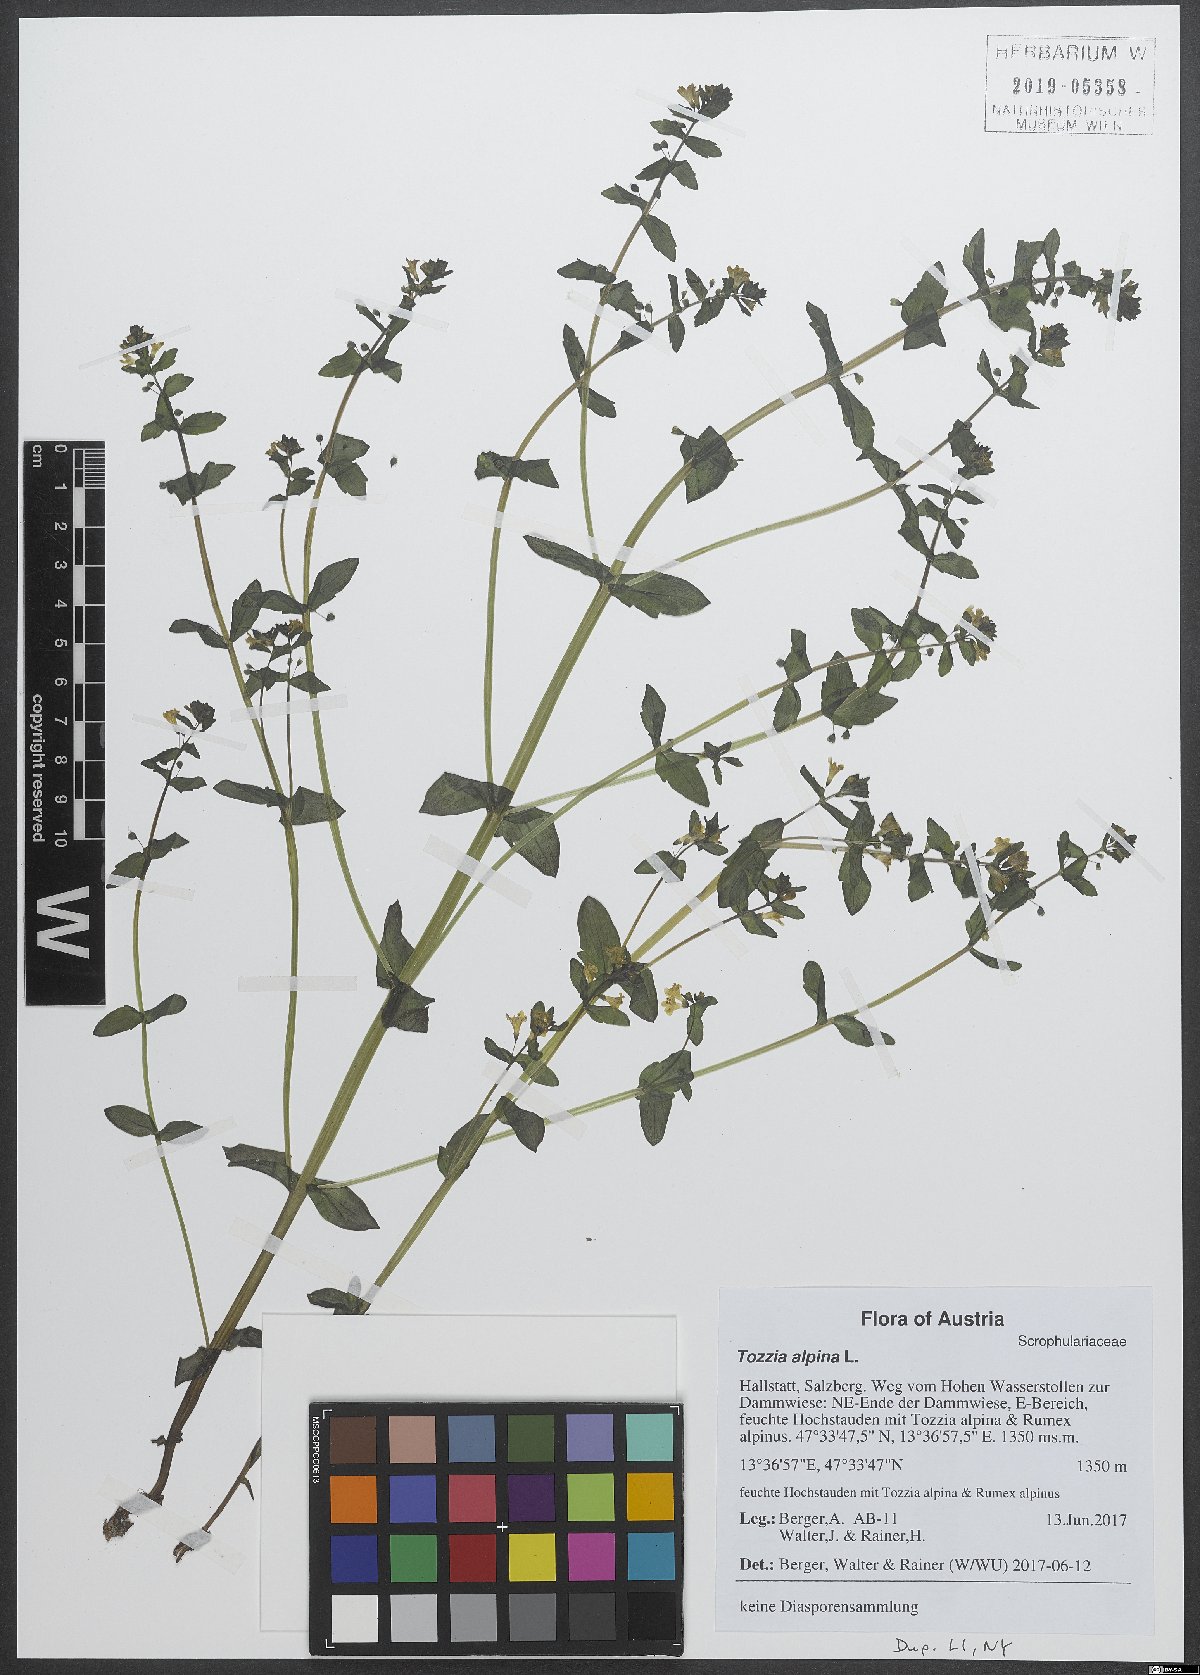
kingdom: Plantae
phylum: Tracheophyta
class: Magnoliopsida
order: Lamiales
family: Orobanchaceae
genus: Tozzia
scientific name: Tozzia alpina
